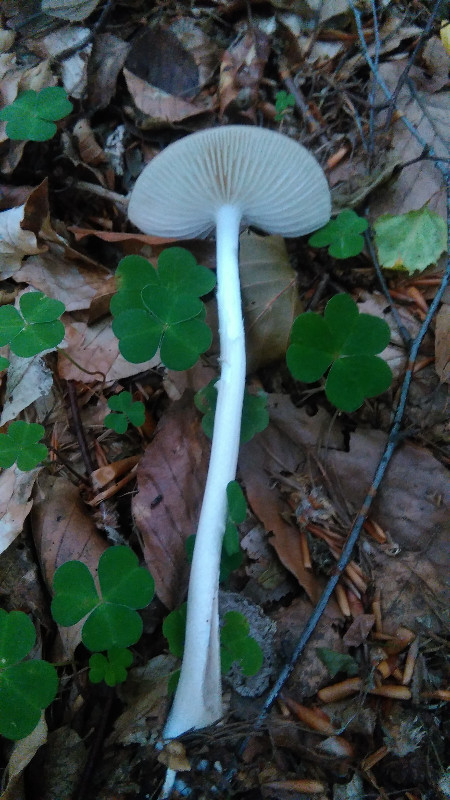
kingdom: Fungi
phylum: Basidiomycota
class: Agaricomycetes
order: Agaricales
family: Physalacriaceae
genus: Hymenopellis
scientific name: Hymenopellis radicata
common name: almindelig pælerodshat
